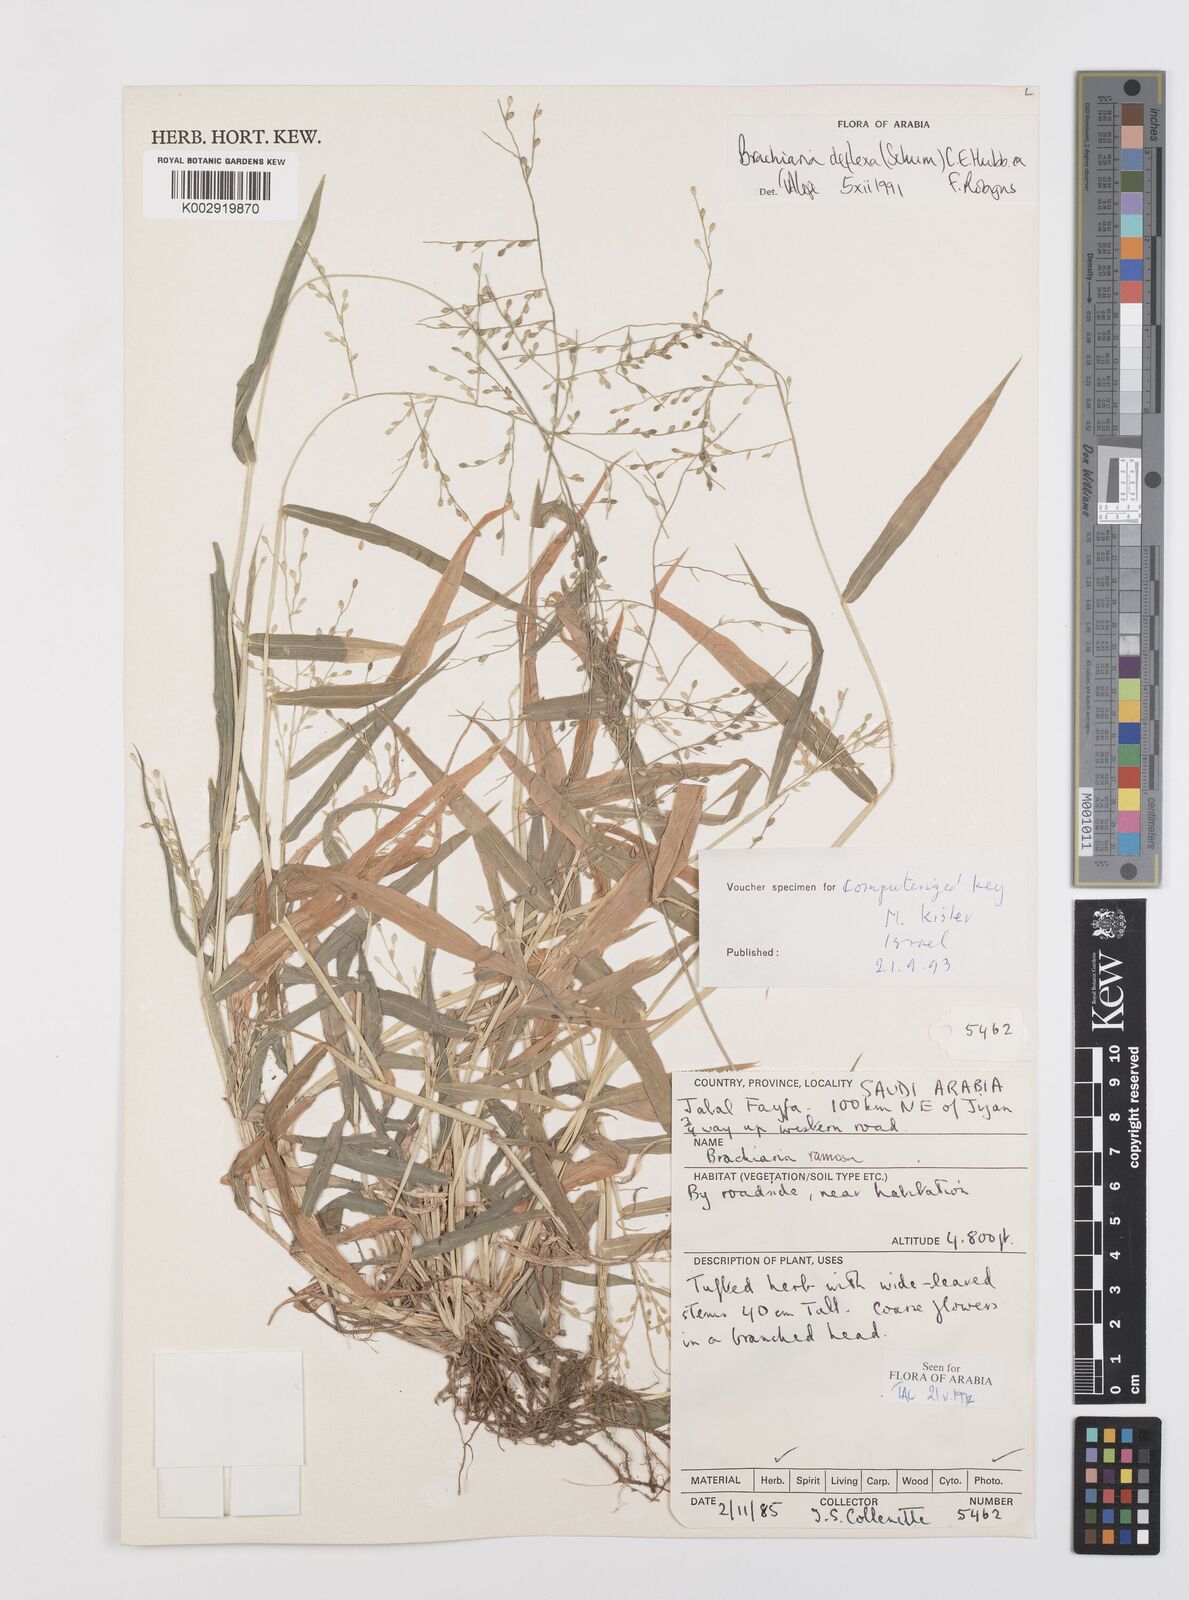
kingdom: Plantae
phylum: Tracheophyta
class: Liliopsida
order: Poales
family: Poaceae
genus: Urochloa
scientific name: Urochloa deflexa
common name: Guinea millet
